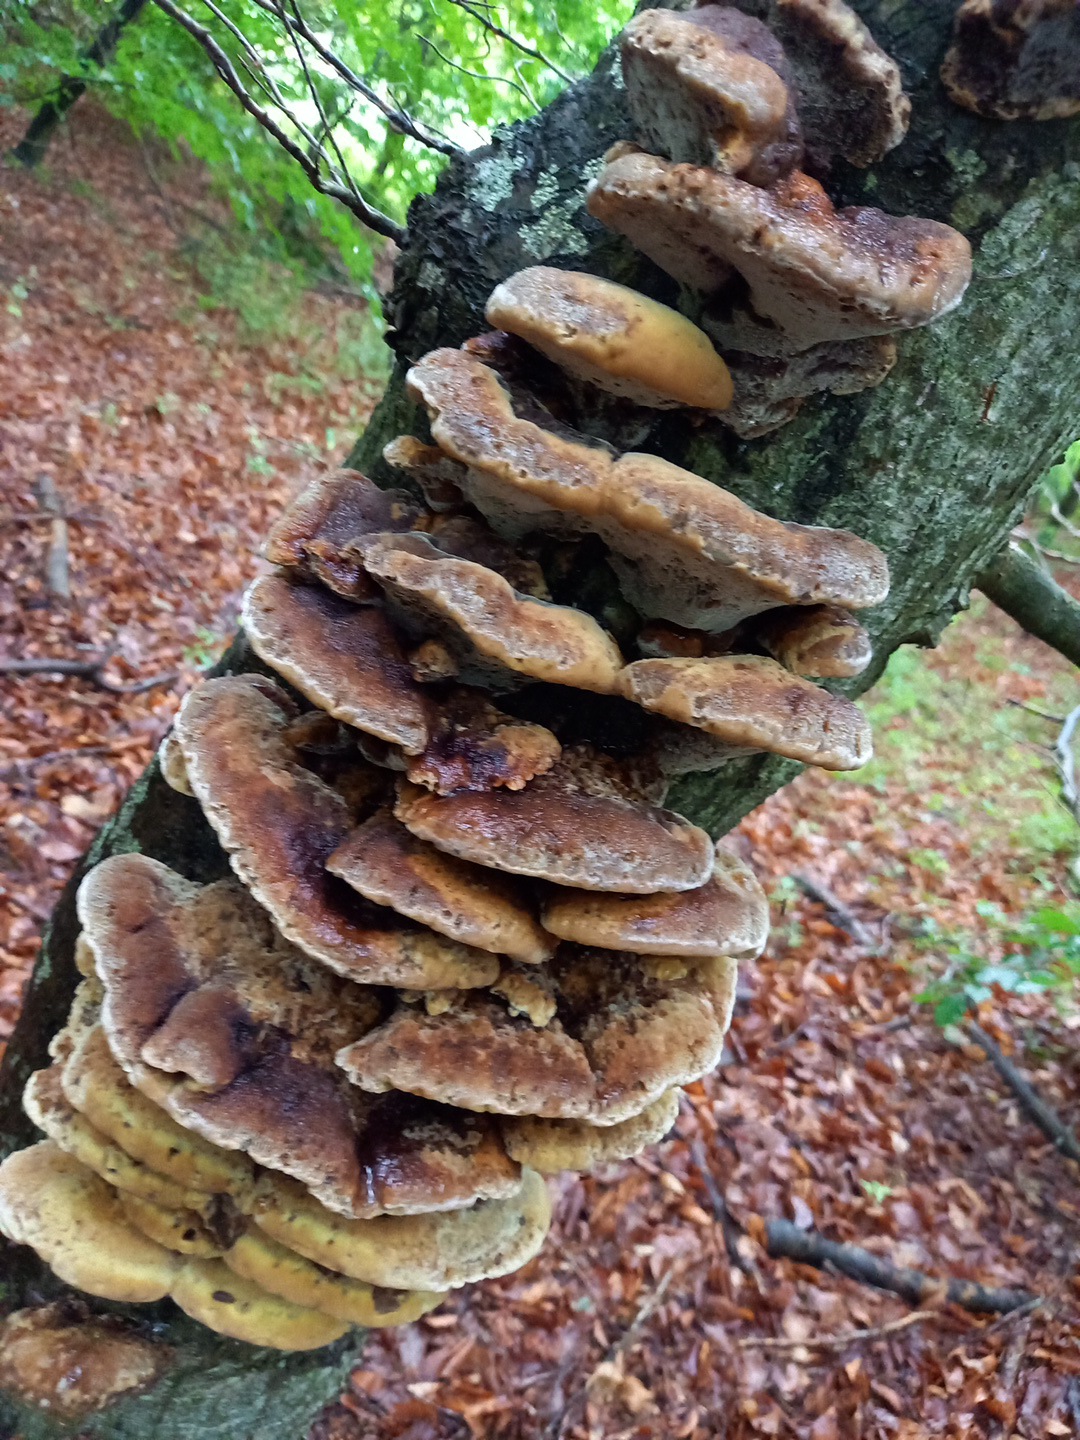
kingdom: Fungi
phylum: Basidiomycota
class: Agaricomycetes
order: Hymenochaetales
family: Hymenochaetaceae
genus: Inonotus
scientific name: Inonotus cuticularis
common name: kroghåret spejlporesvamp
